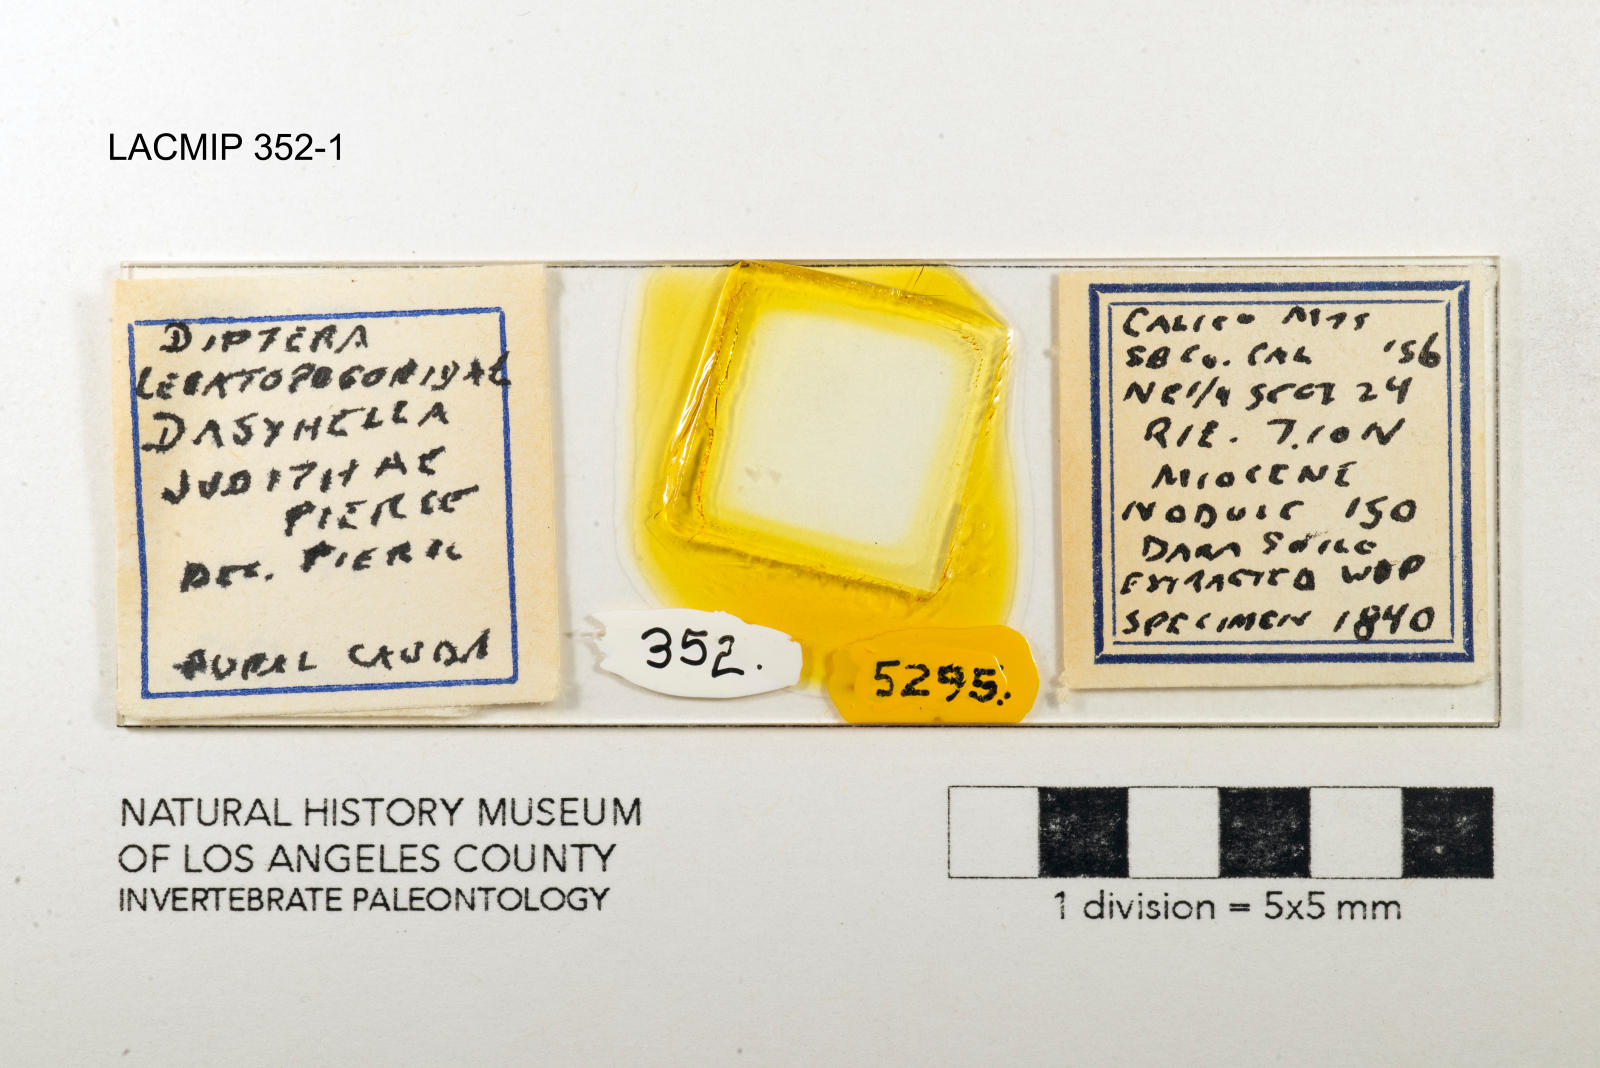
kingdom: Animalia
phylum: Arthropoda
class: Insecta
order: Diptera
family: Ceratopogonidae
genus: Dasyhelea
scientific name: Dasyhelea judithae
